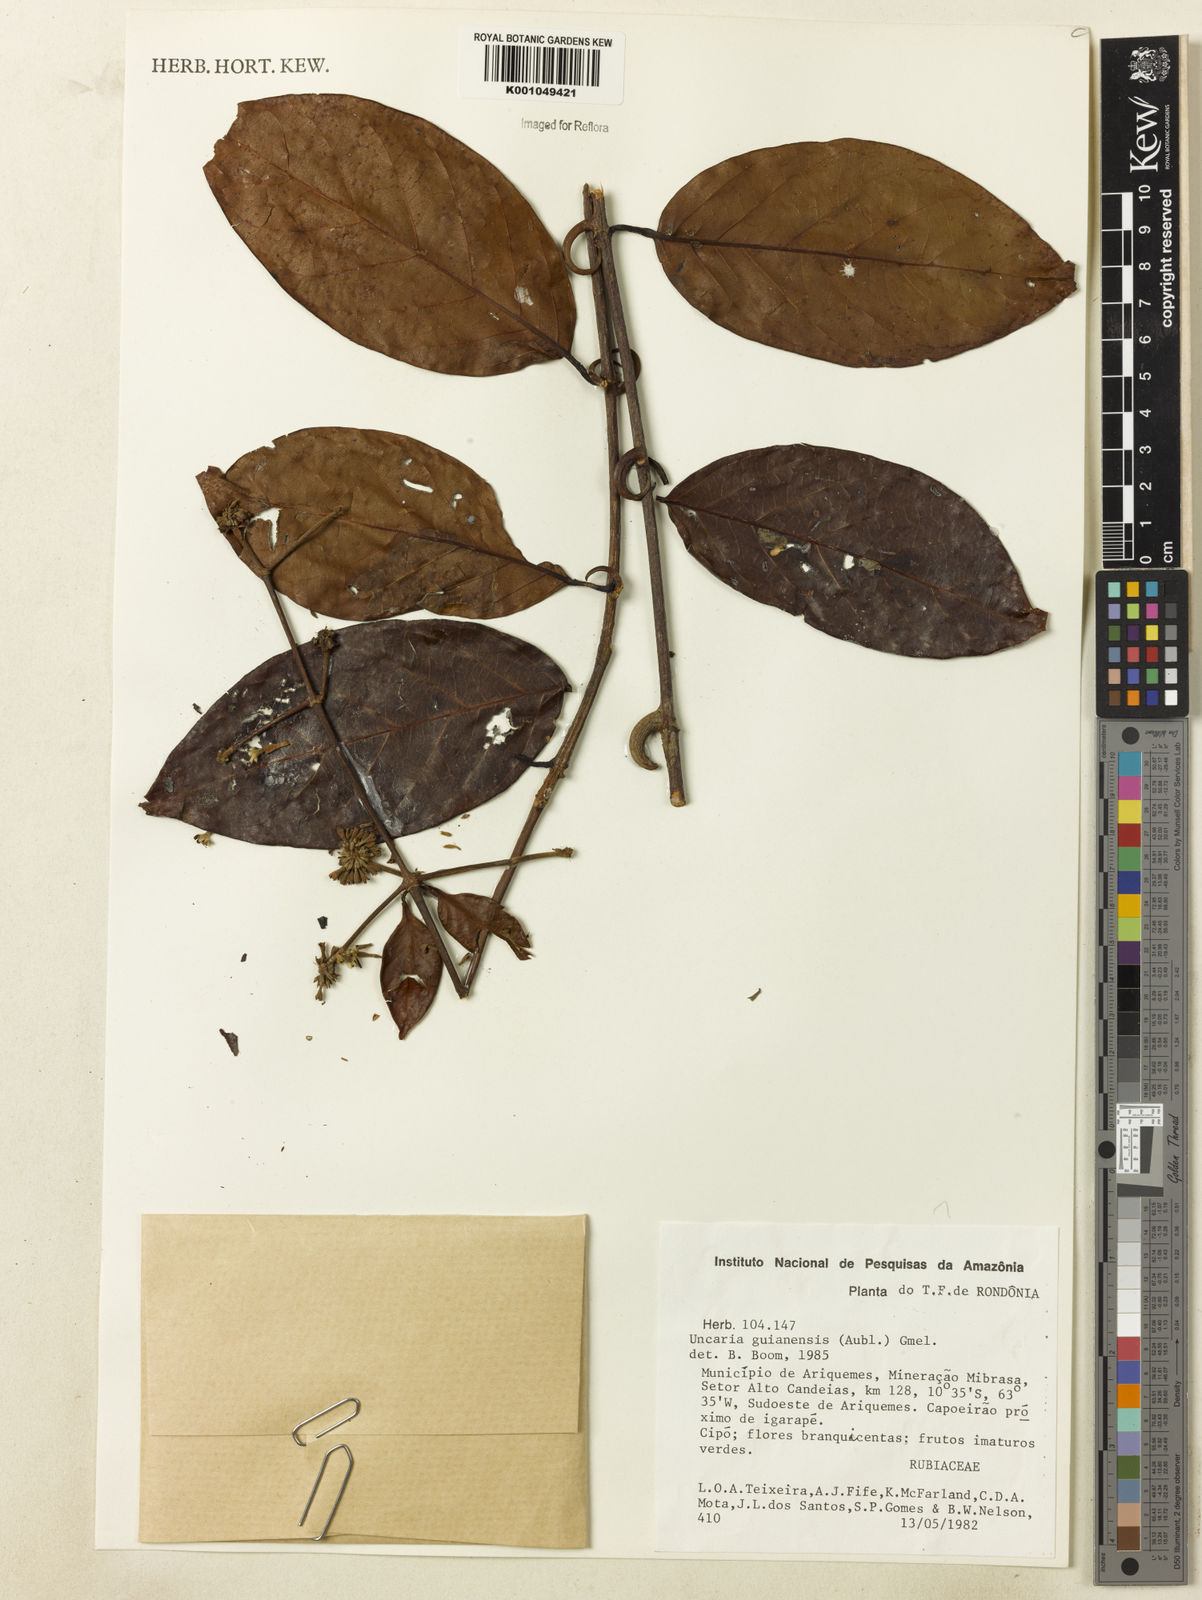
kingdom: Plantae
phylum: Tracheophyta
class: Magnoliopsida
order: Gentianales
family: Rubiaceae
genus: Uncaria
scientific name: Uncaria guianensis
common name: Cat's-claw
